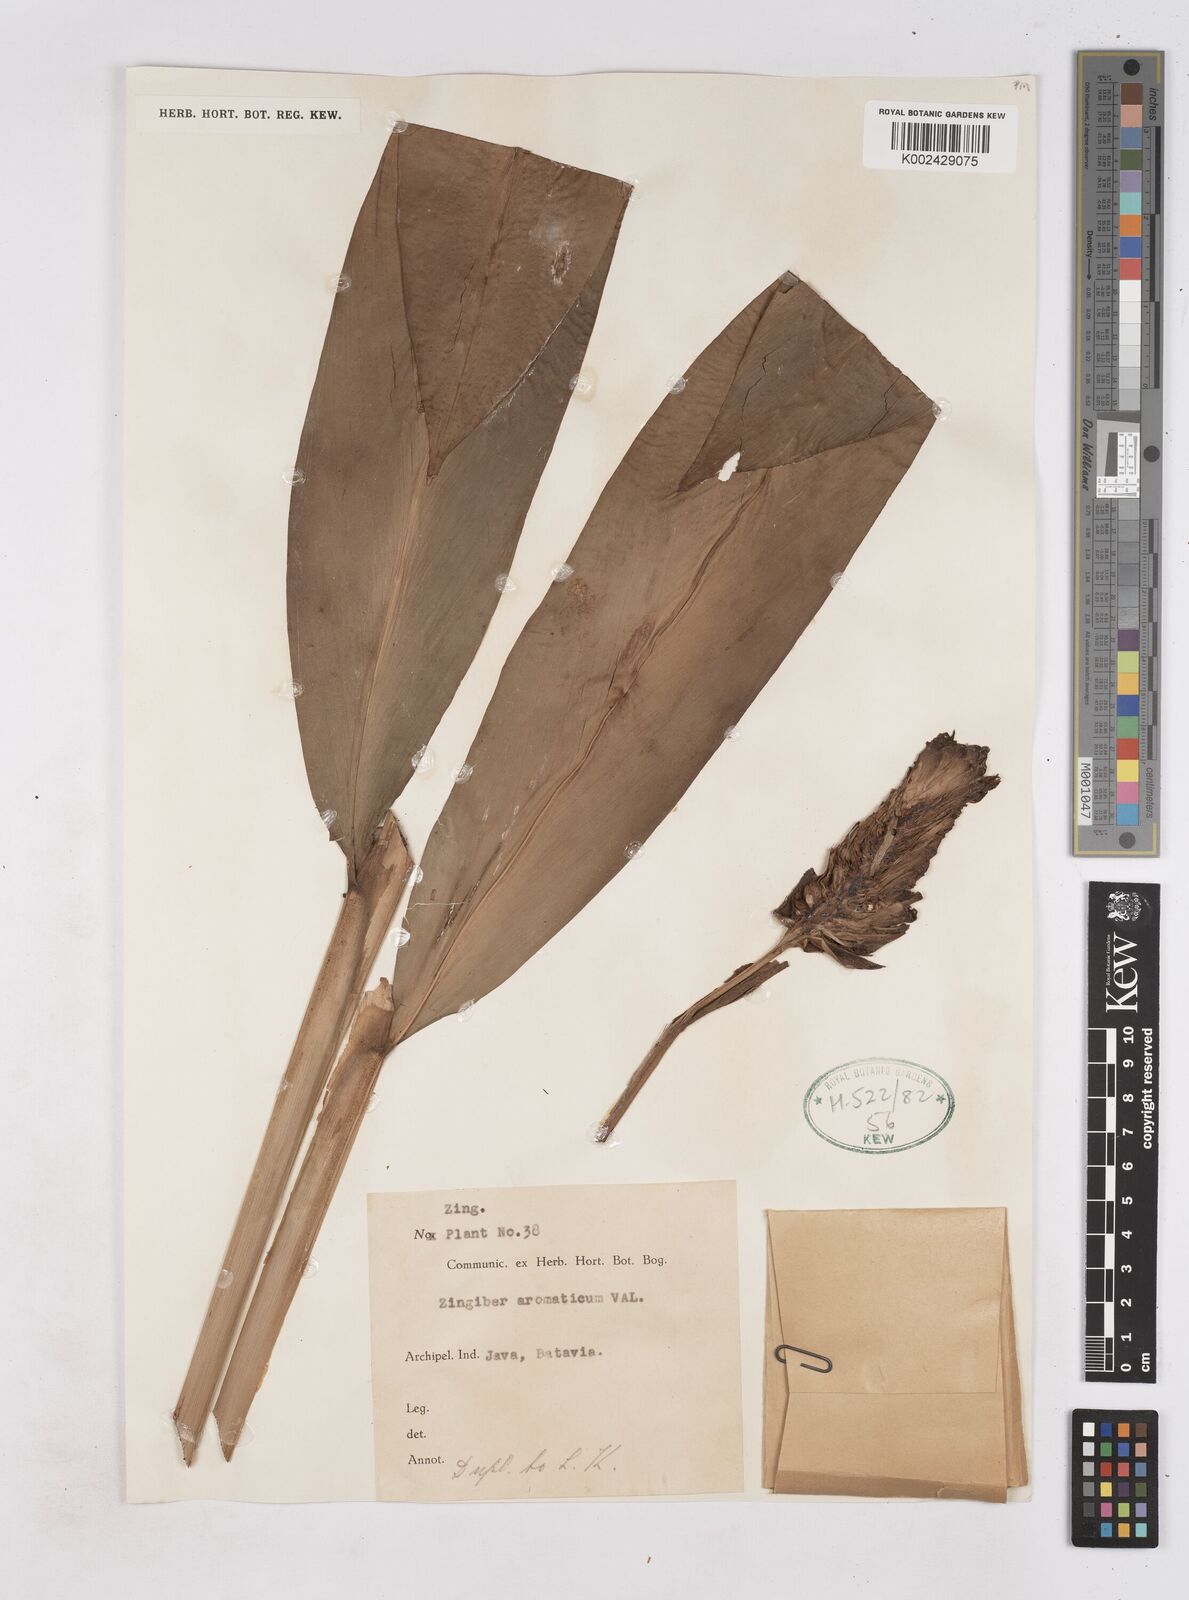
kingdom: Plantae
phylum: Tracheophyta
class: Liliopsida
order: Zingiberales
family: Zingiberaceae
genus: Zingiber
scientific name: Zingiber zerumbet
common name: Bitter ginger
